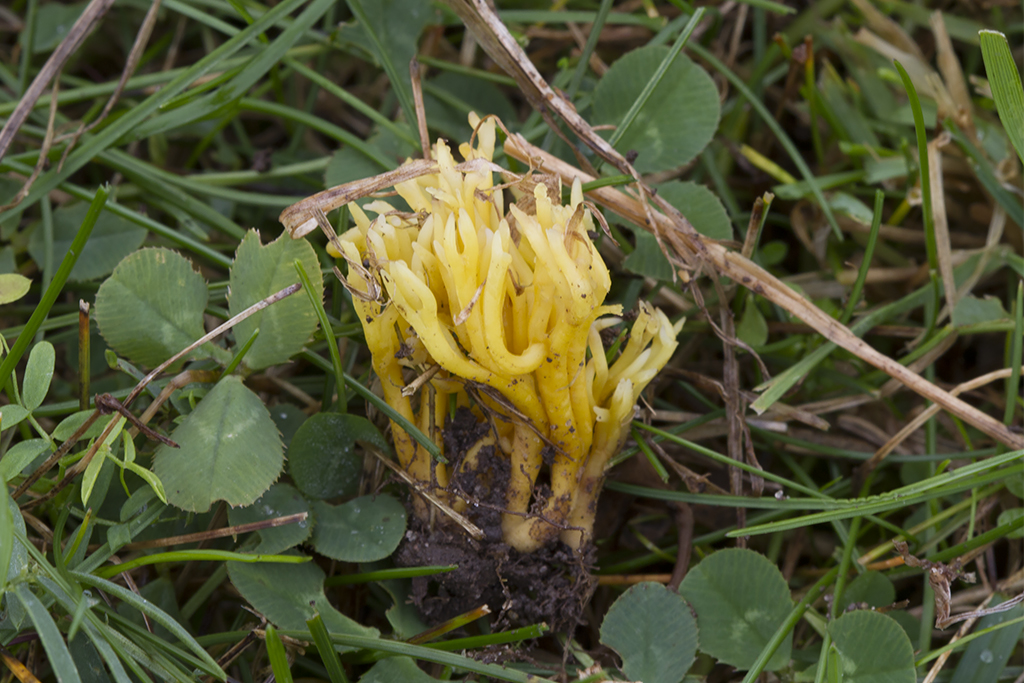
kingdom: Fungi
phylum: Basidiomycota
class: Agaricomycetes
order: Agaricales
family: Clavariaceae
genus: Clavulinopsis
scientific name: Clavulinopsis corniculata
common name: eng-køllesvamp
